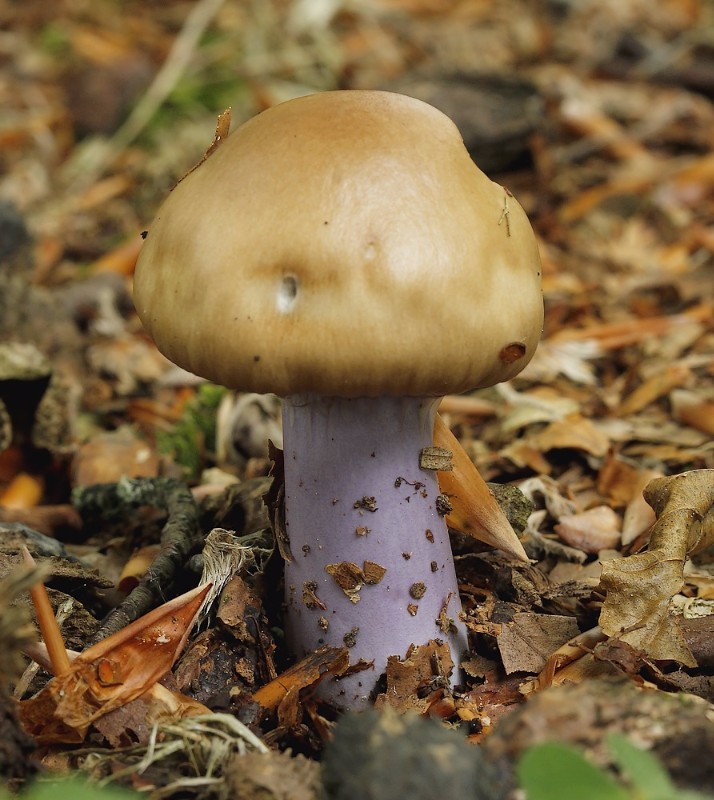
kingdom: Fungi
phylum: Basidiomycota
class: Agaricomycetes
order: Agaricales
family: Cortinariaceae
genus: Cortinarius
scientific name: Cortinarius elatior
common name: høj slørhat
